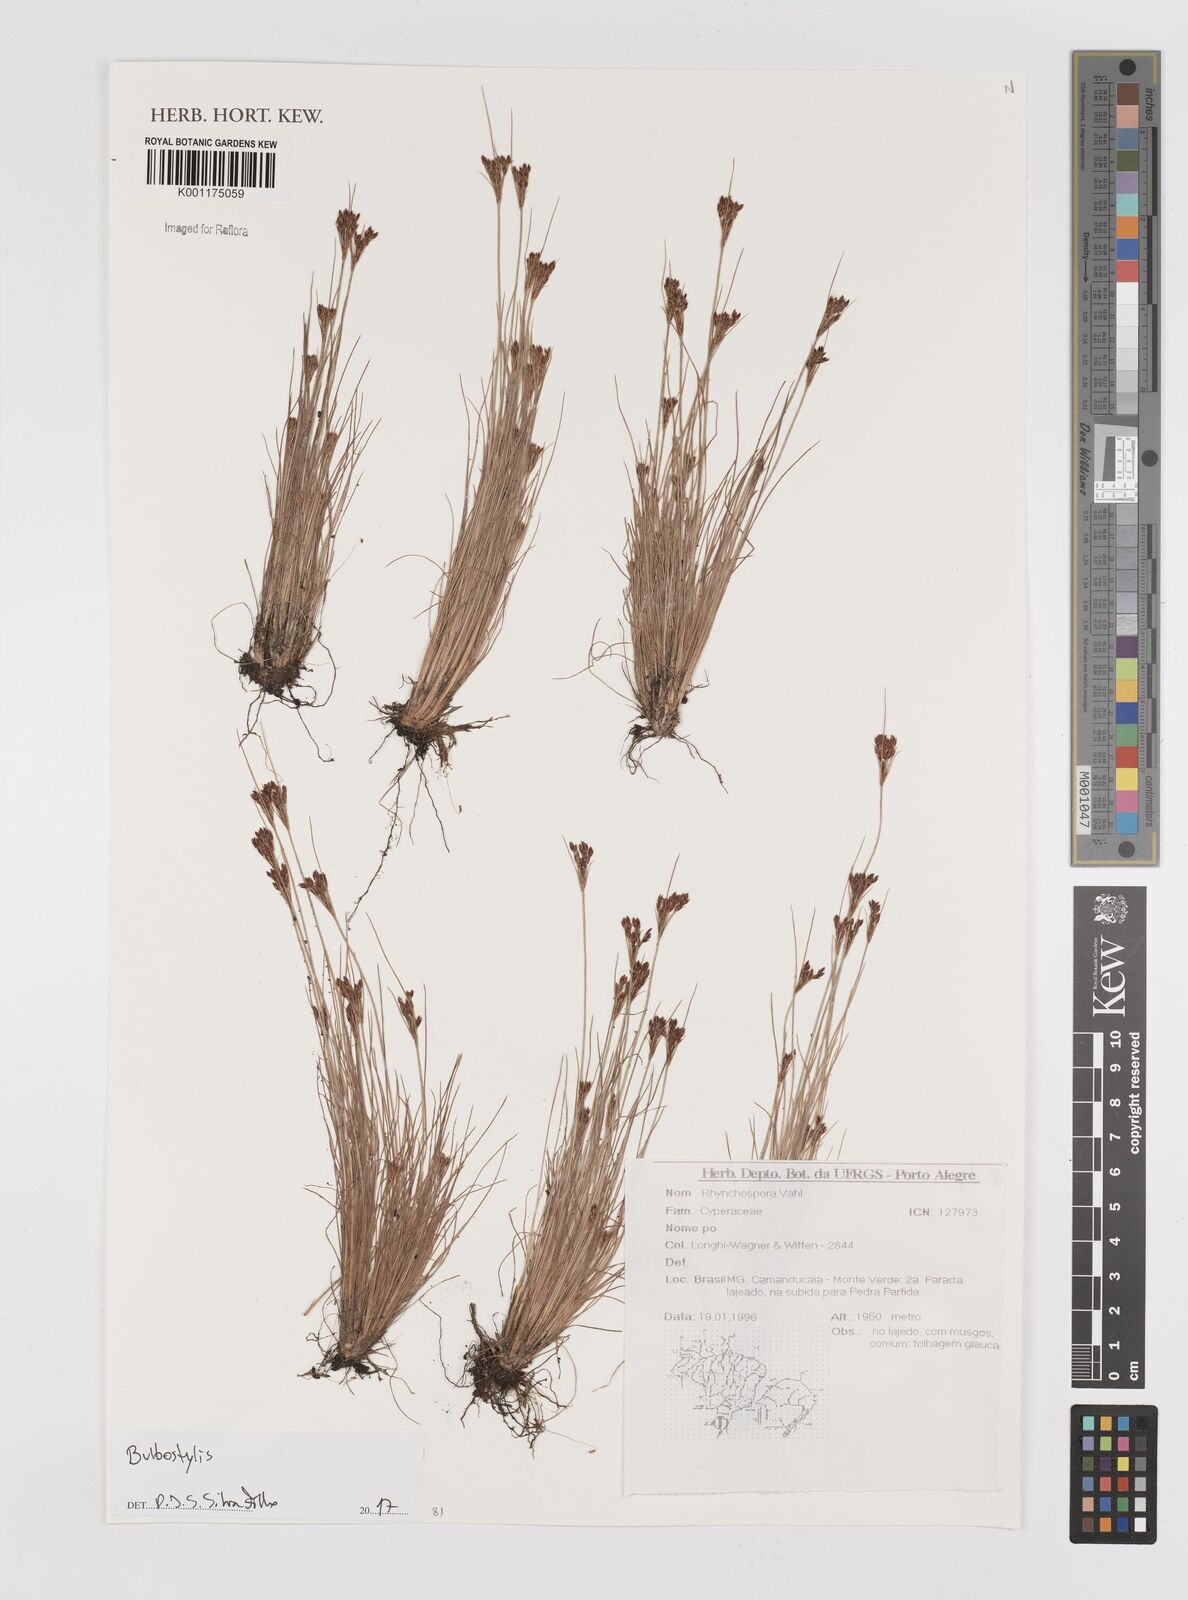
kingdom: Plantae
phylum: Tracheophyta
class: Liliopsida
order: Poales
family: Cyperaceae
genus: Bulbostylis
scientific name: Bulbostylis
